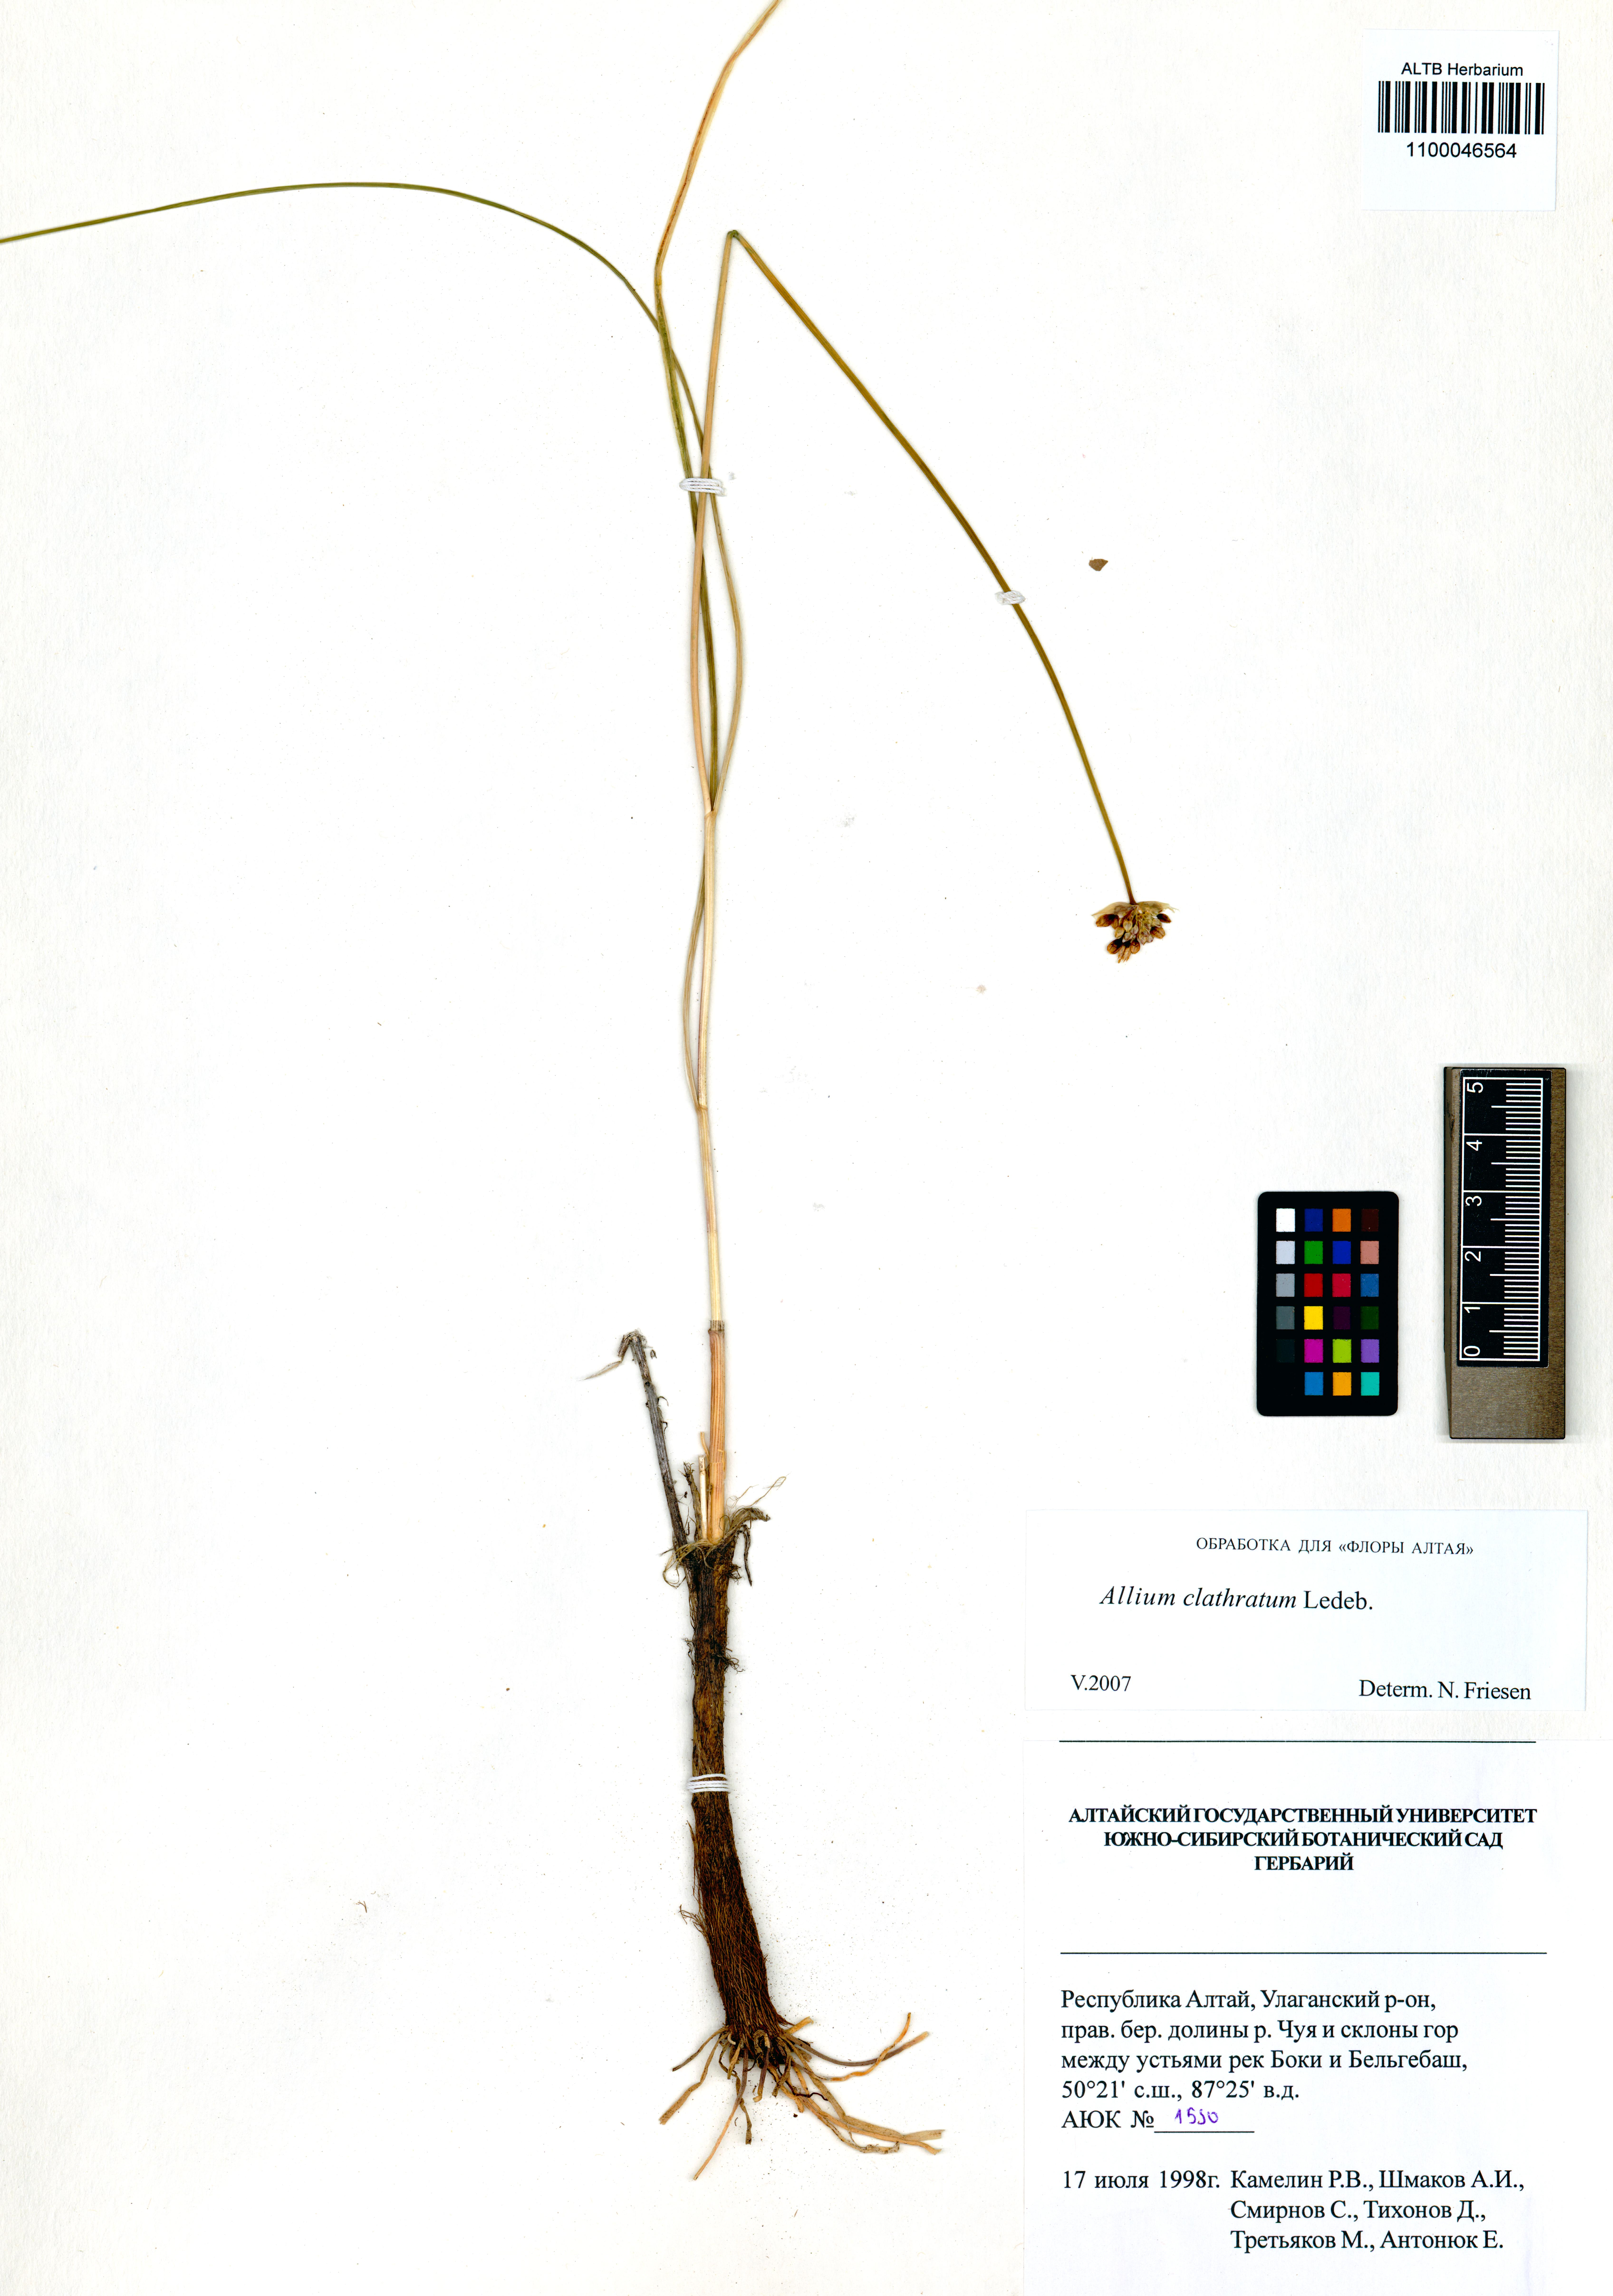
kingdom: Plantae
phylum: Tracheophyta
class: Liliopsida
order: Asparagales
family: Amaryllidaceae
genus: Allium
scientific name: Allium clathratum
